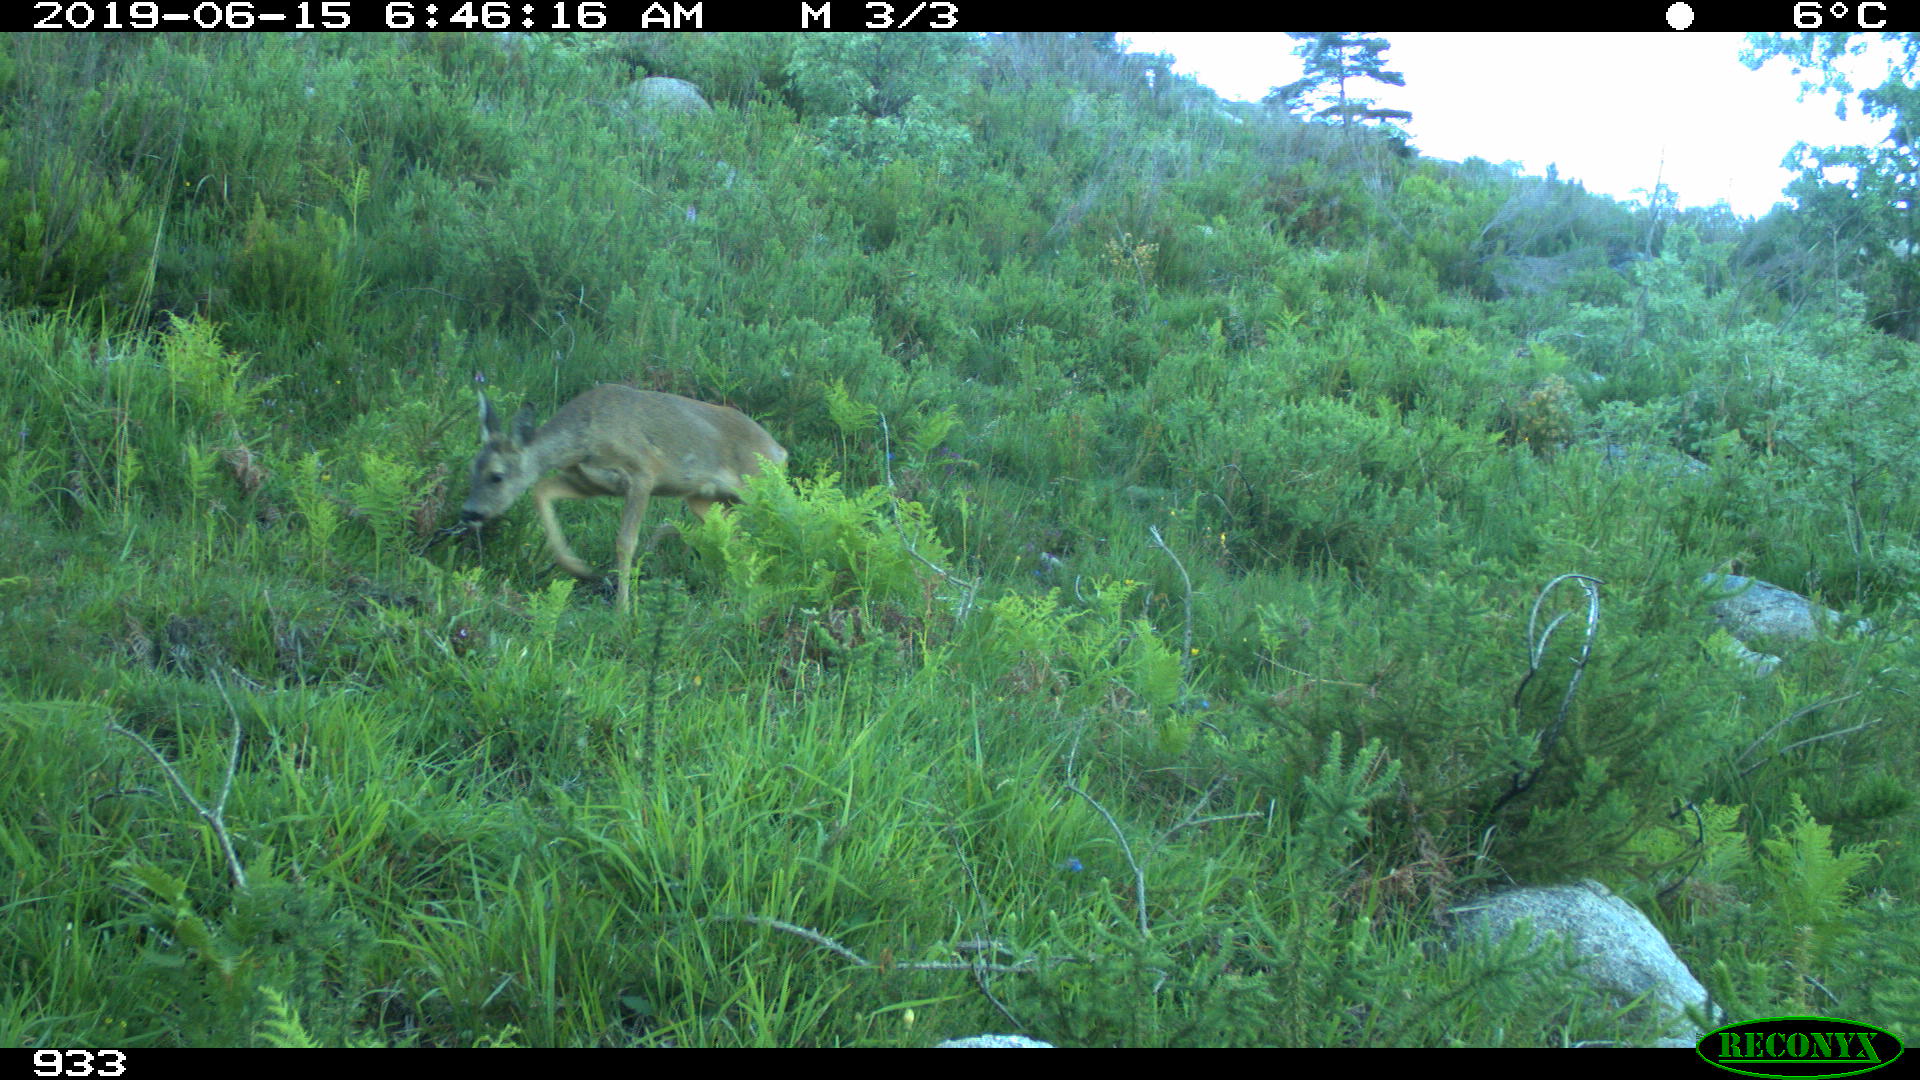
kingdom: Animalia
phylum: Chordata
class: Mammalia
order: Artiodactyla
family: Cervidae
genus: Capreolus
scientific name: Capreolus capreolus
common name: Western roe deer
